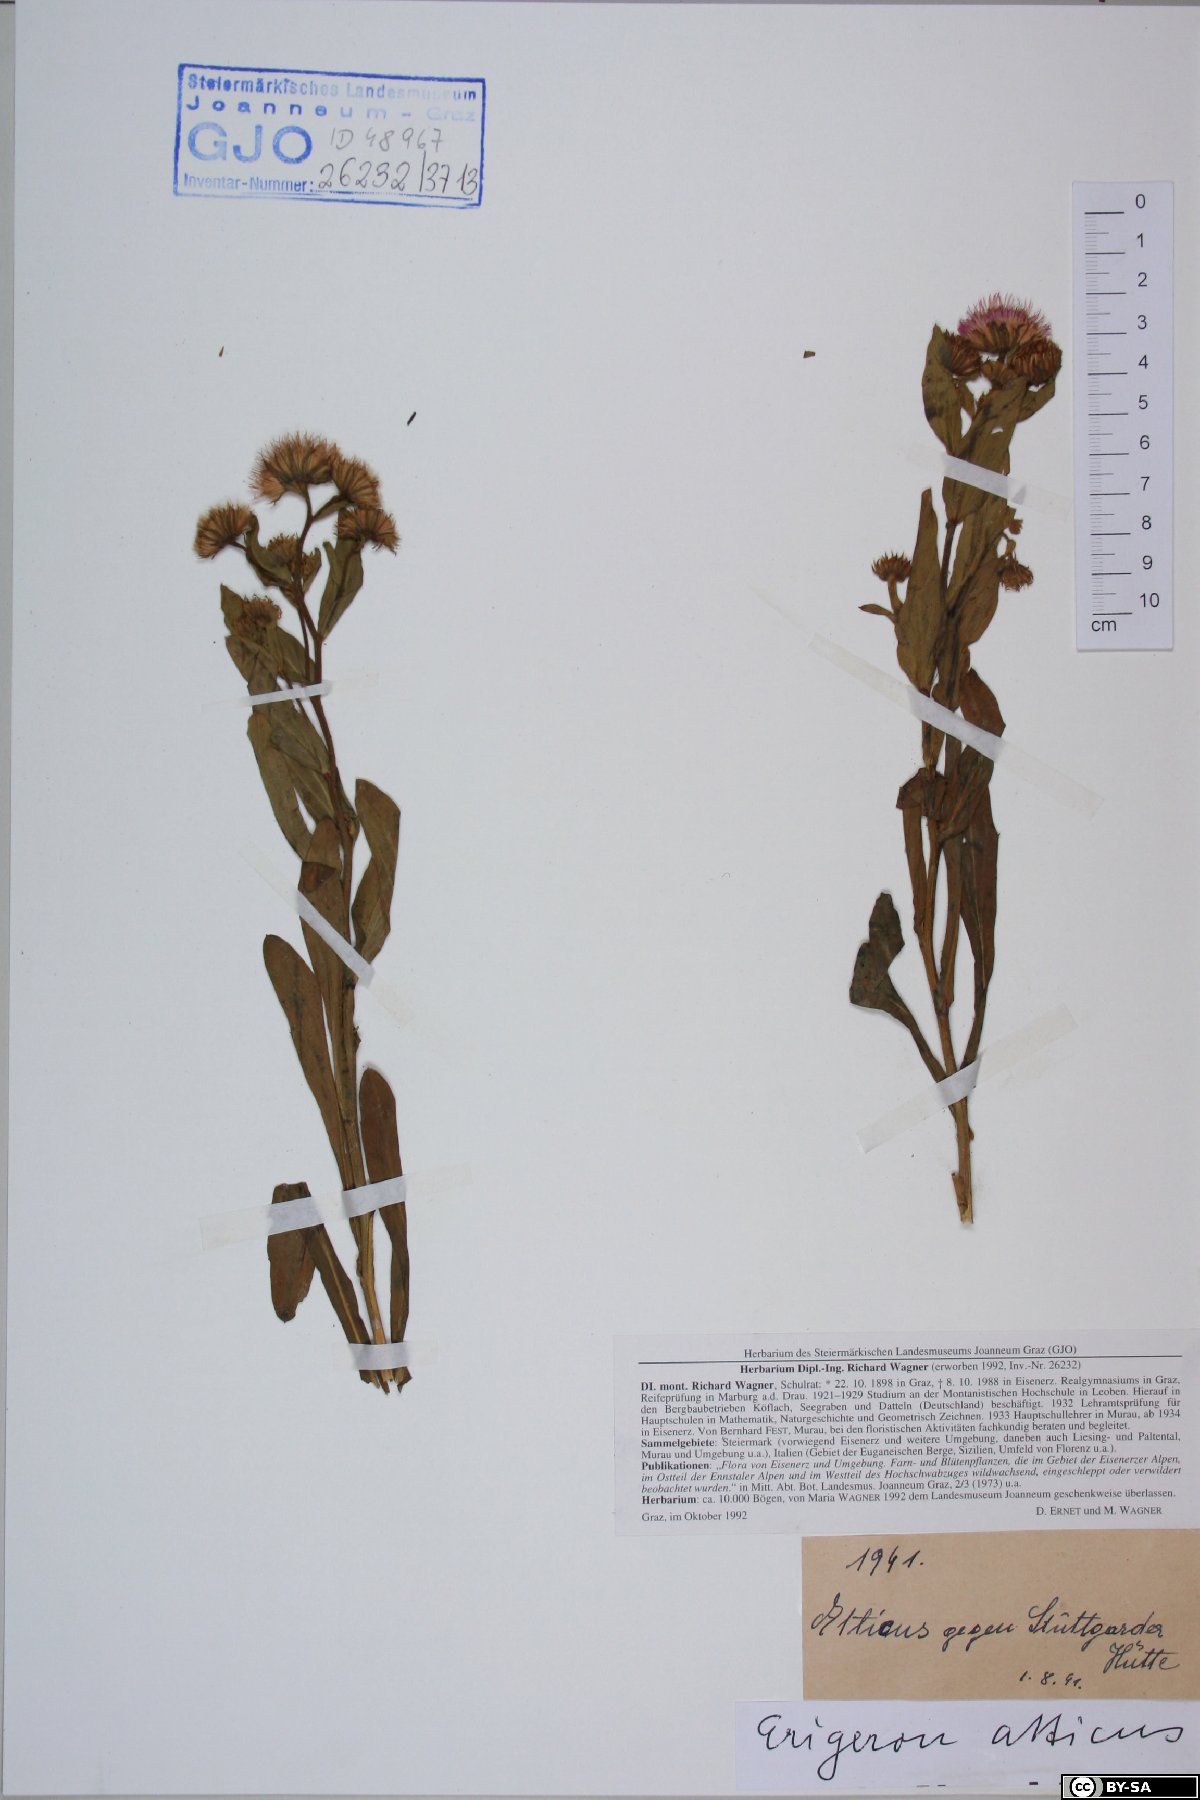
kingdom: Plantae
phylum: Tracheophyta
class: Magnoliopsida
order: Asterales
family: Asteraceae
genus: Erigeron
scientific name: Erigeron atticus
